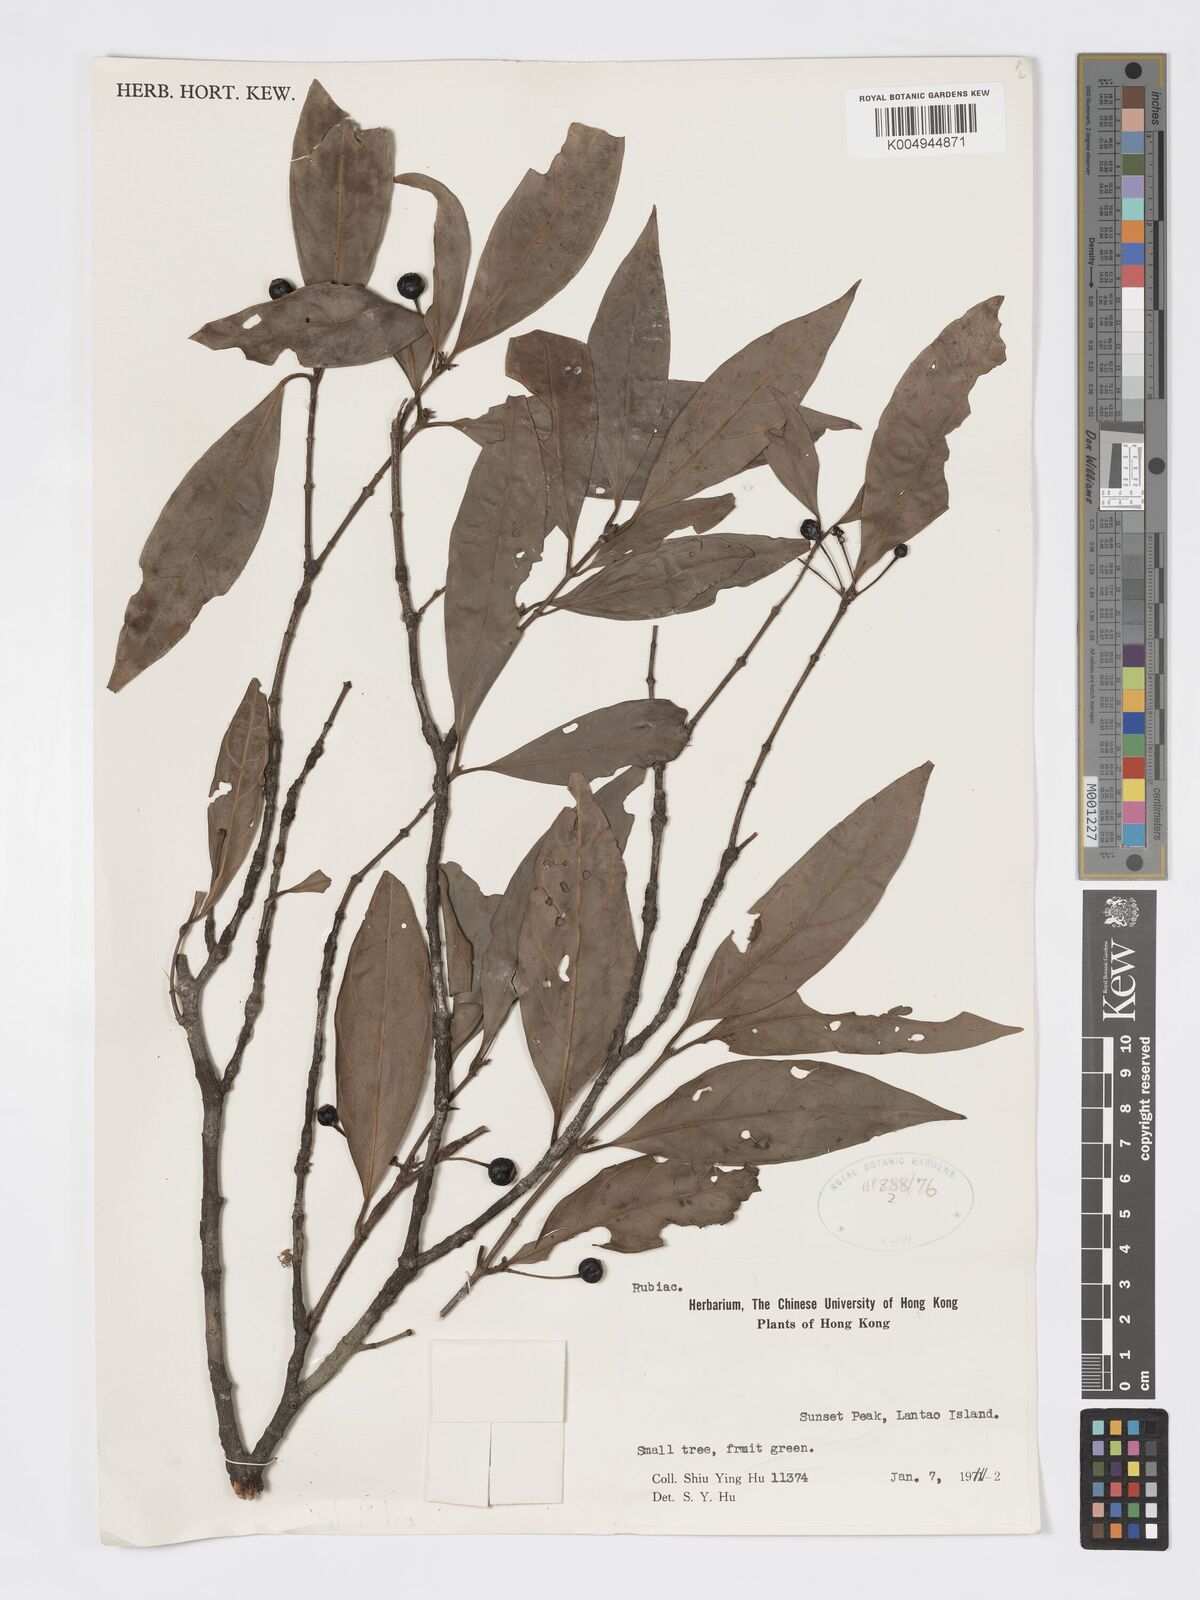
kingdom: Plantae
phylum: Tracheophyta
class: Magnoliopsida
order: Gentianales
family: Rubiaceae
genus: Aidia
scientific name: Aidia canthioides
